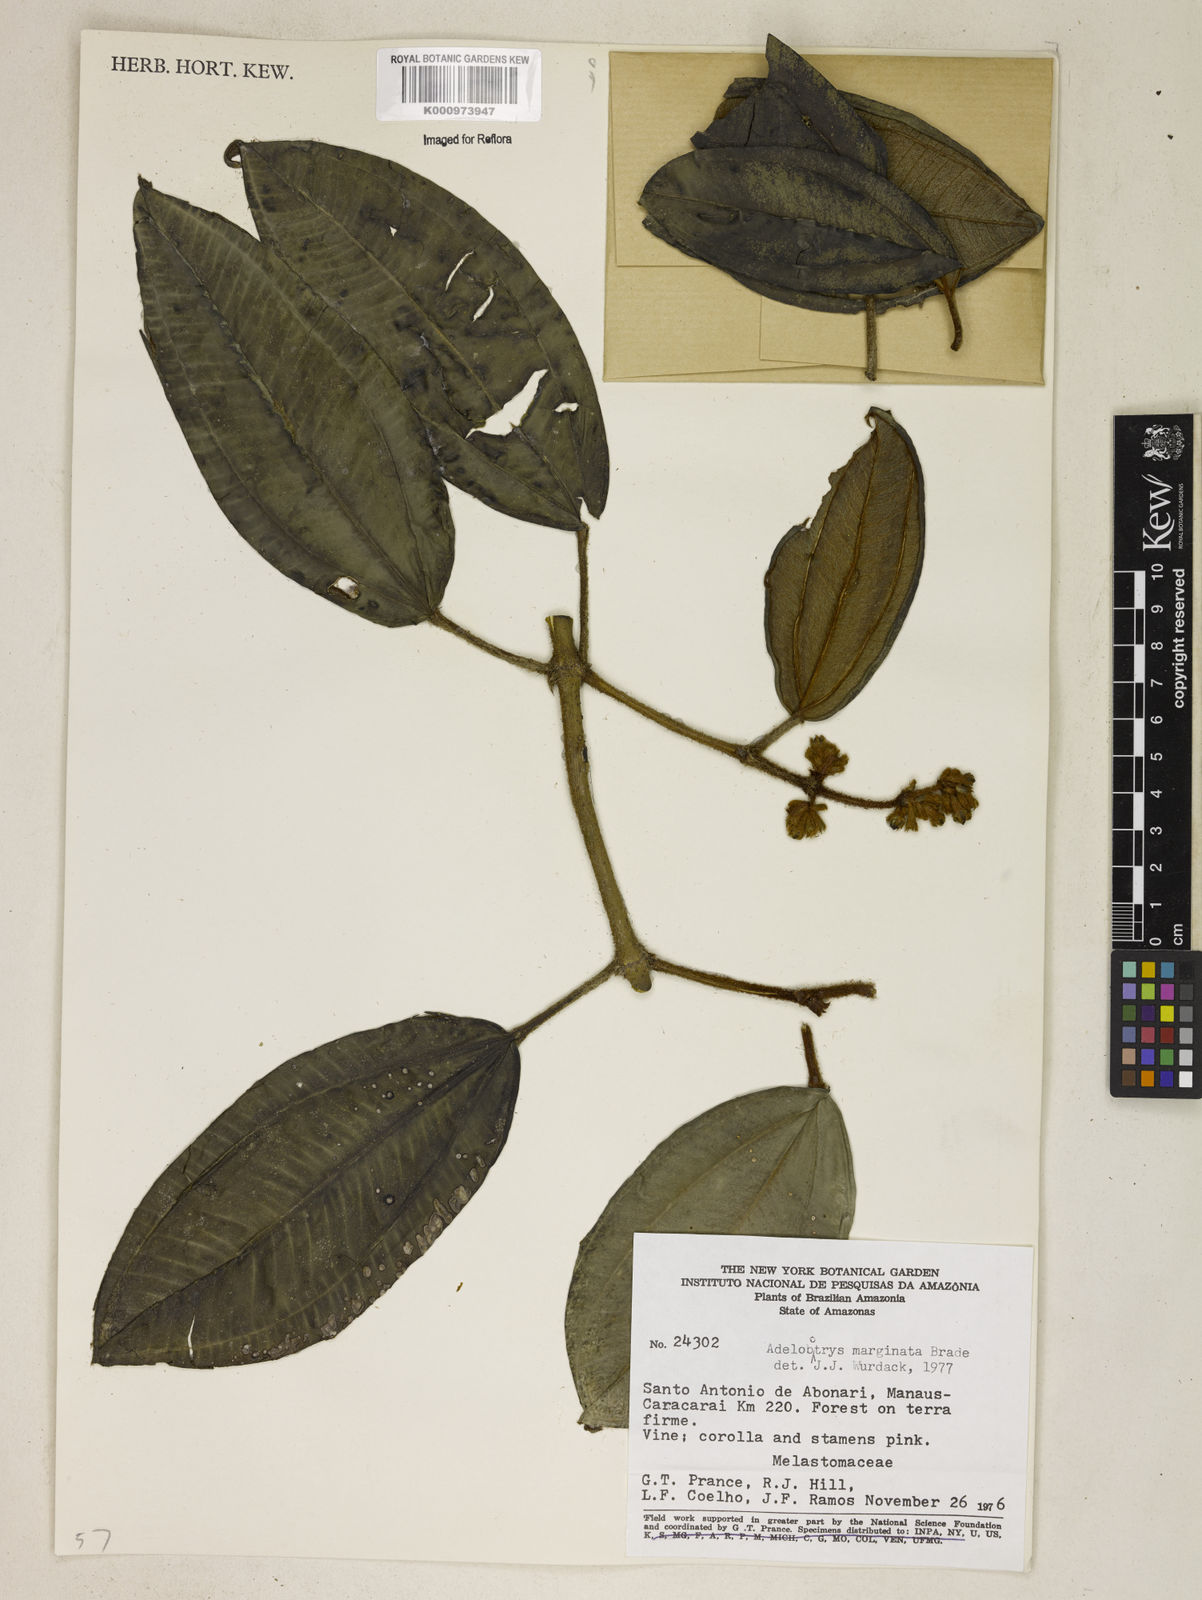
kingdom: Plantae
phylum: Tracheophyta
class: Magnoliopsida
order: Myrtales
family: Melastomataceae
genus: Adelobotrys
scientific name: Adelobotrys marginatus
